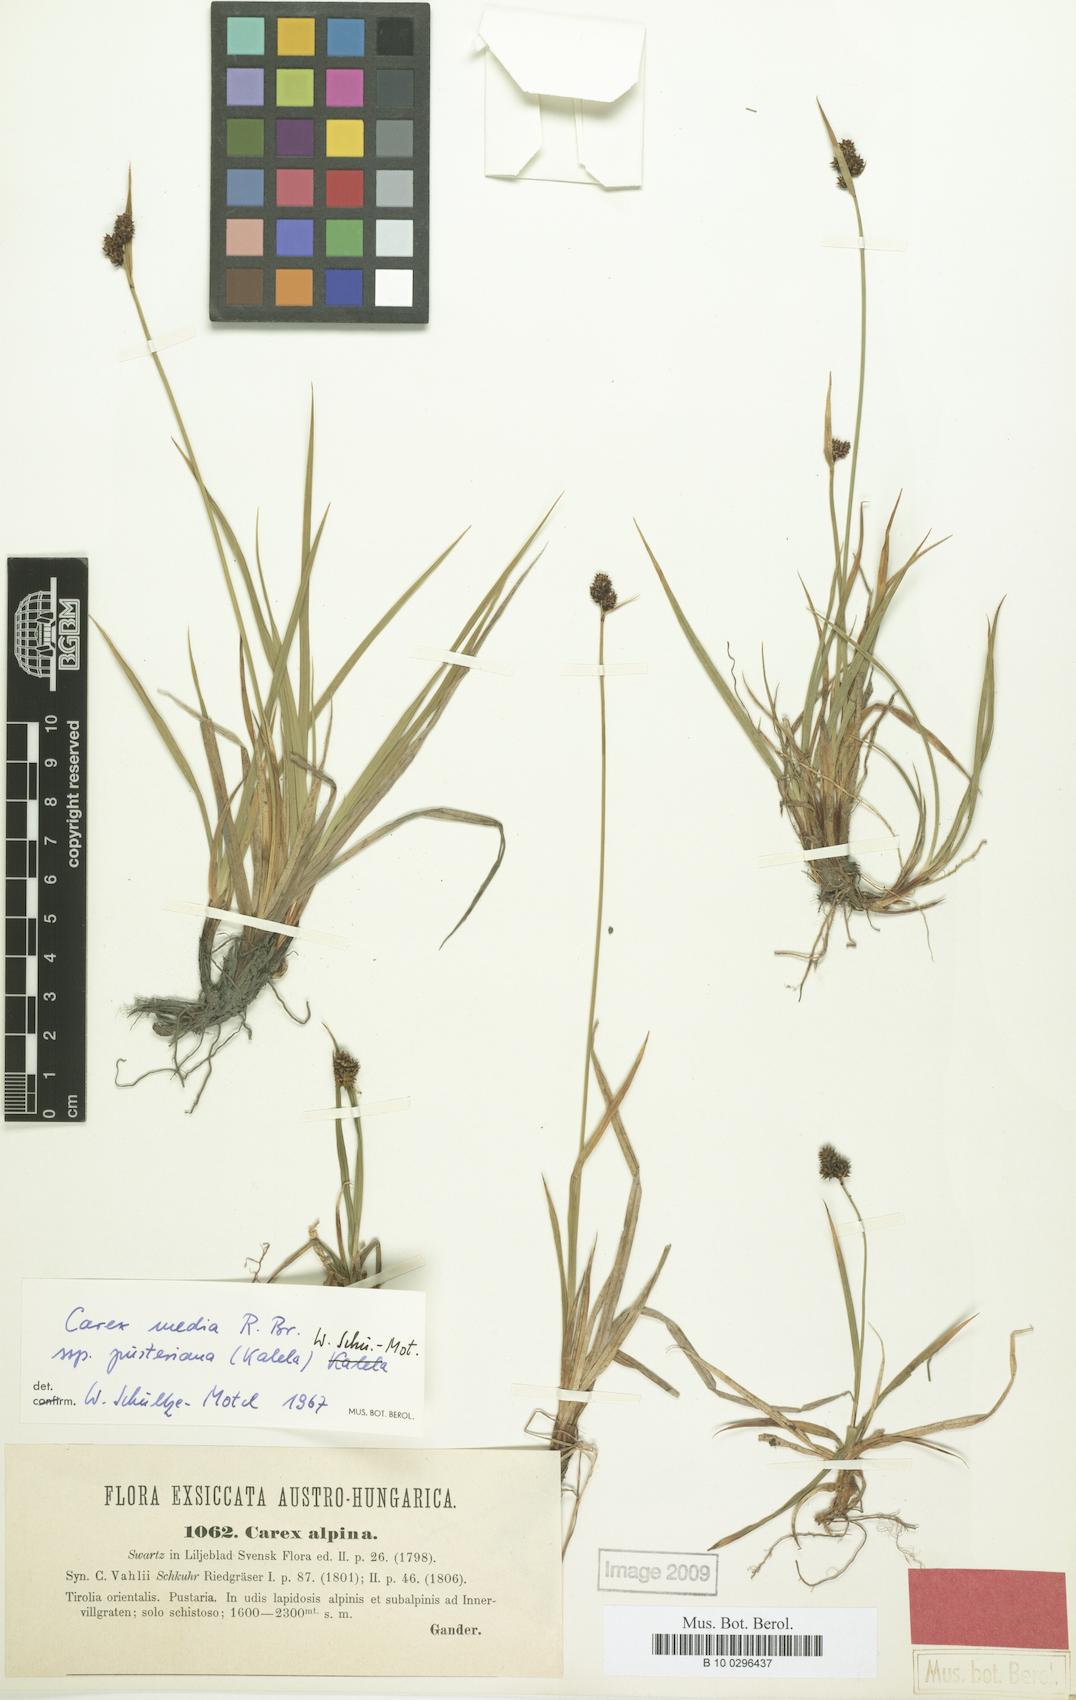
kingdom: Plantae
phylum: Tracheophyta
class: Liliopsida
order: Poales
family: Cyperaceae
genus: Carex
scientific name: Carex norvegica
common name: Close-headed alpine-sedge
